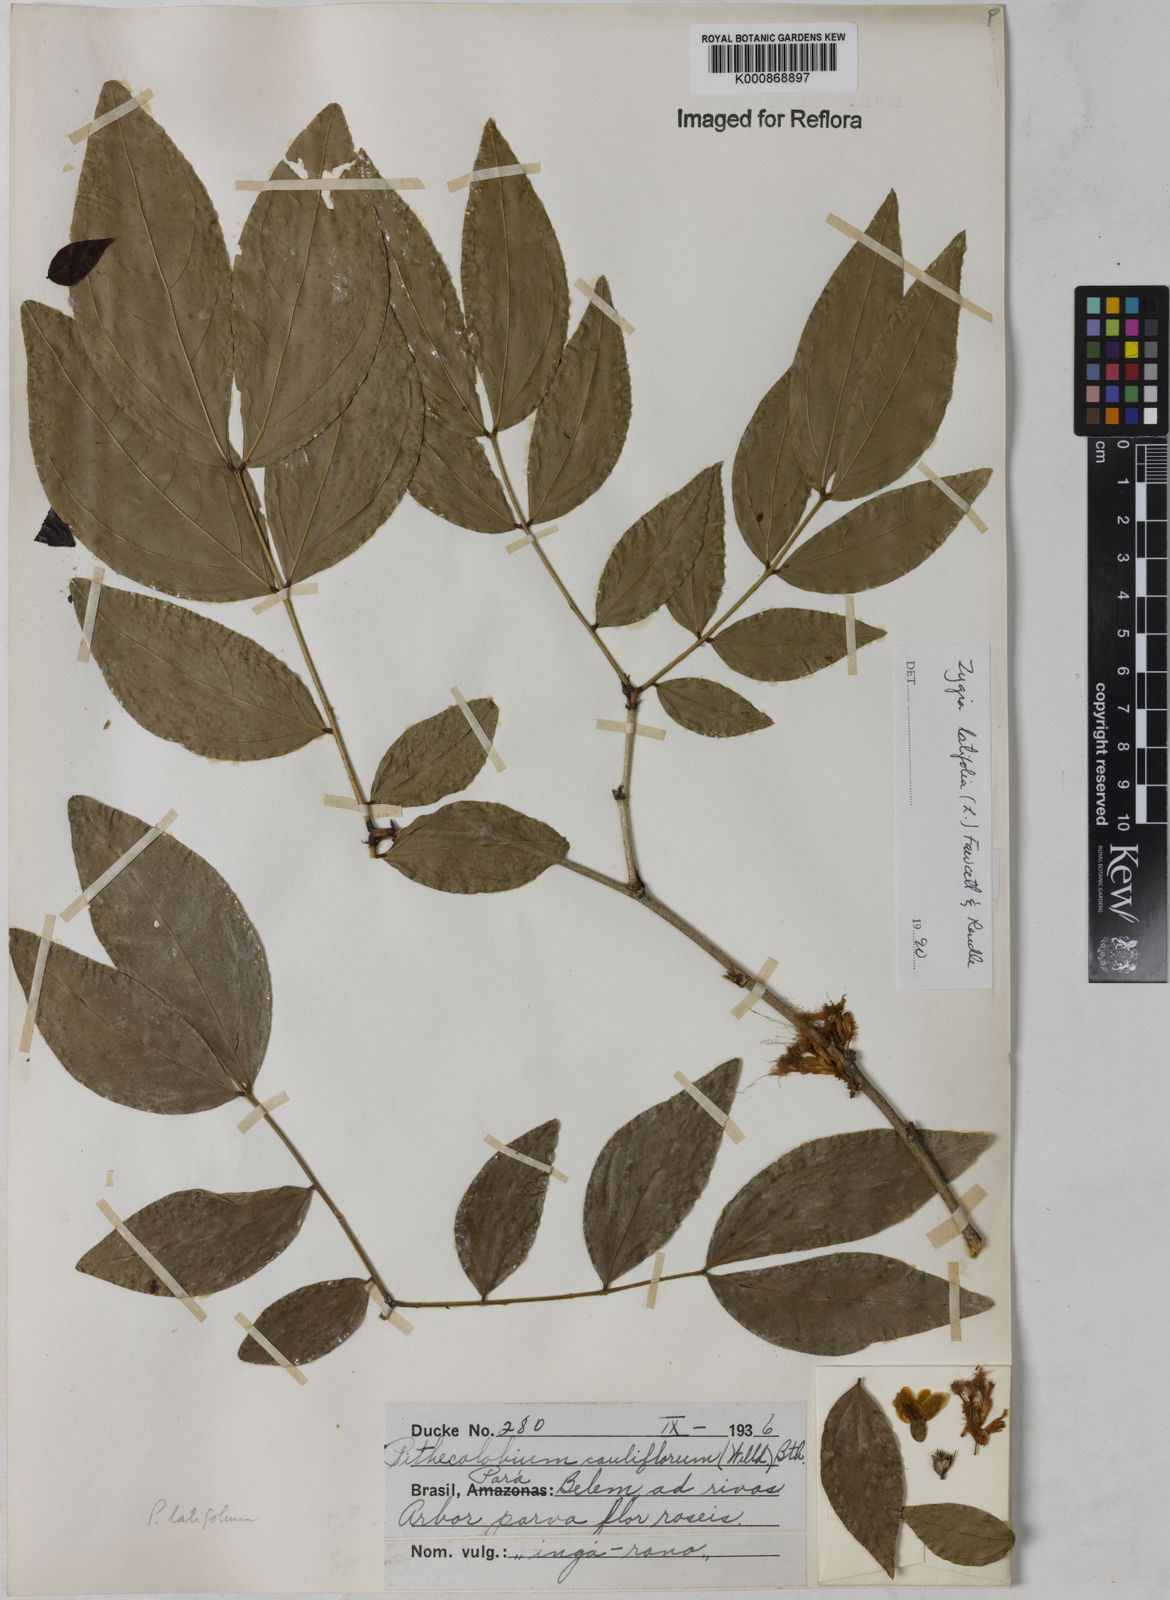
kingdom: Plantae
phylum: Tracheophyta
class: Magnoliopsida
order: Fabales
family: Fabaceae
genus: Zygia
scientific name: Zygia latifolia
